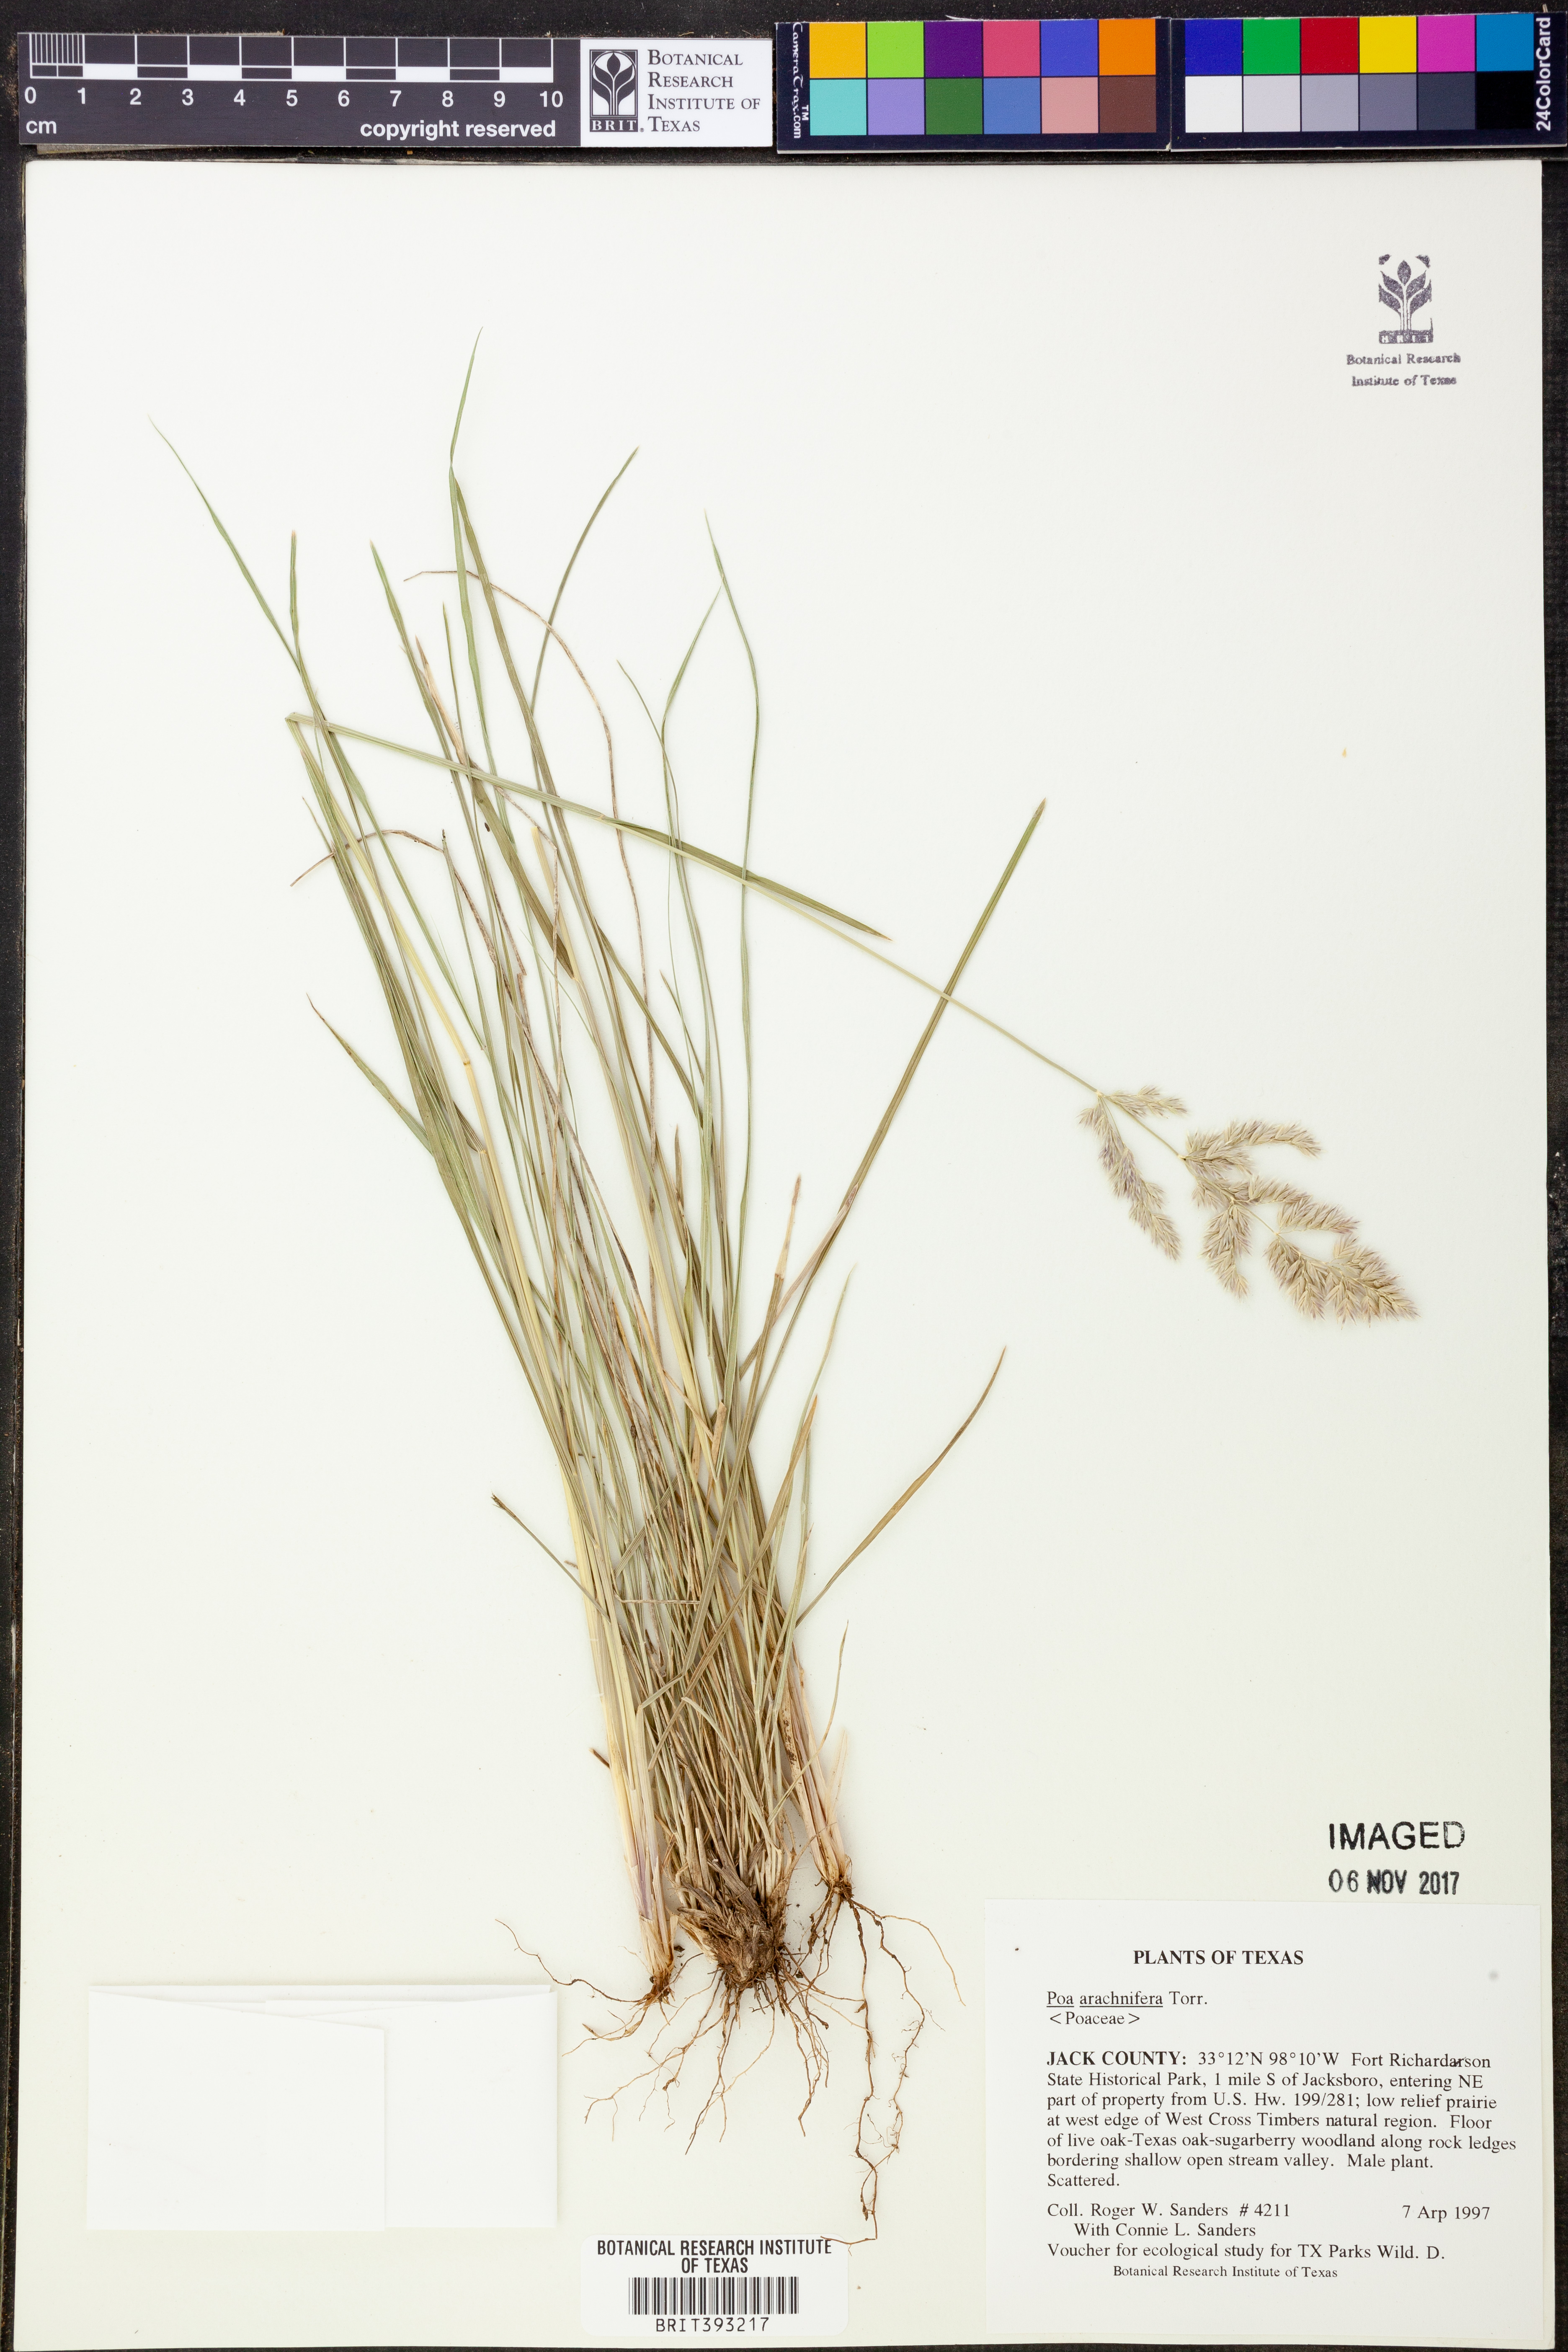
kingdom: Plantae
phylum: Tracheophyta
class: Liliopsida
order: Poales
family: Poaceae
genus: Poa
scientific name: Poa arachnifera
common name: Texas bluegrass
